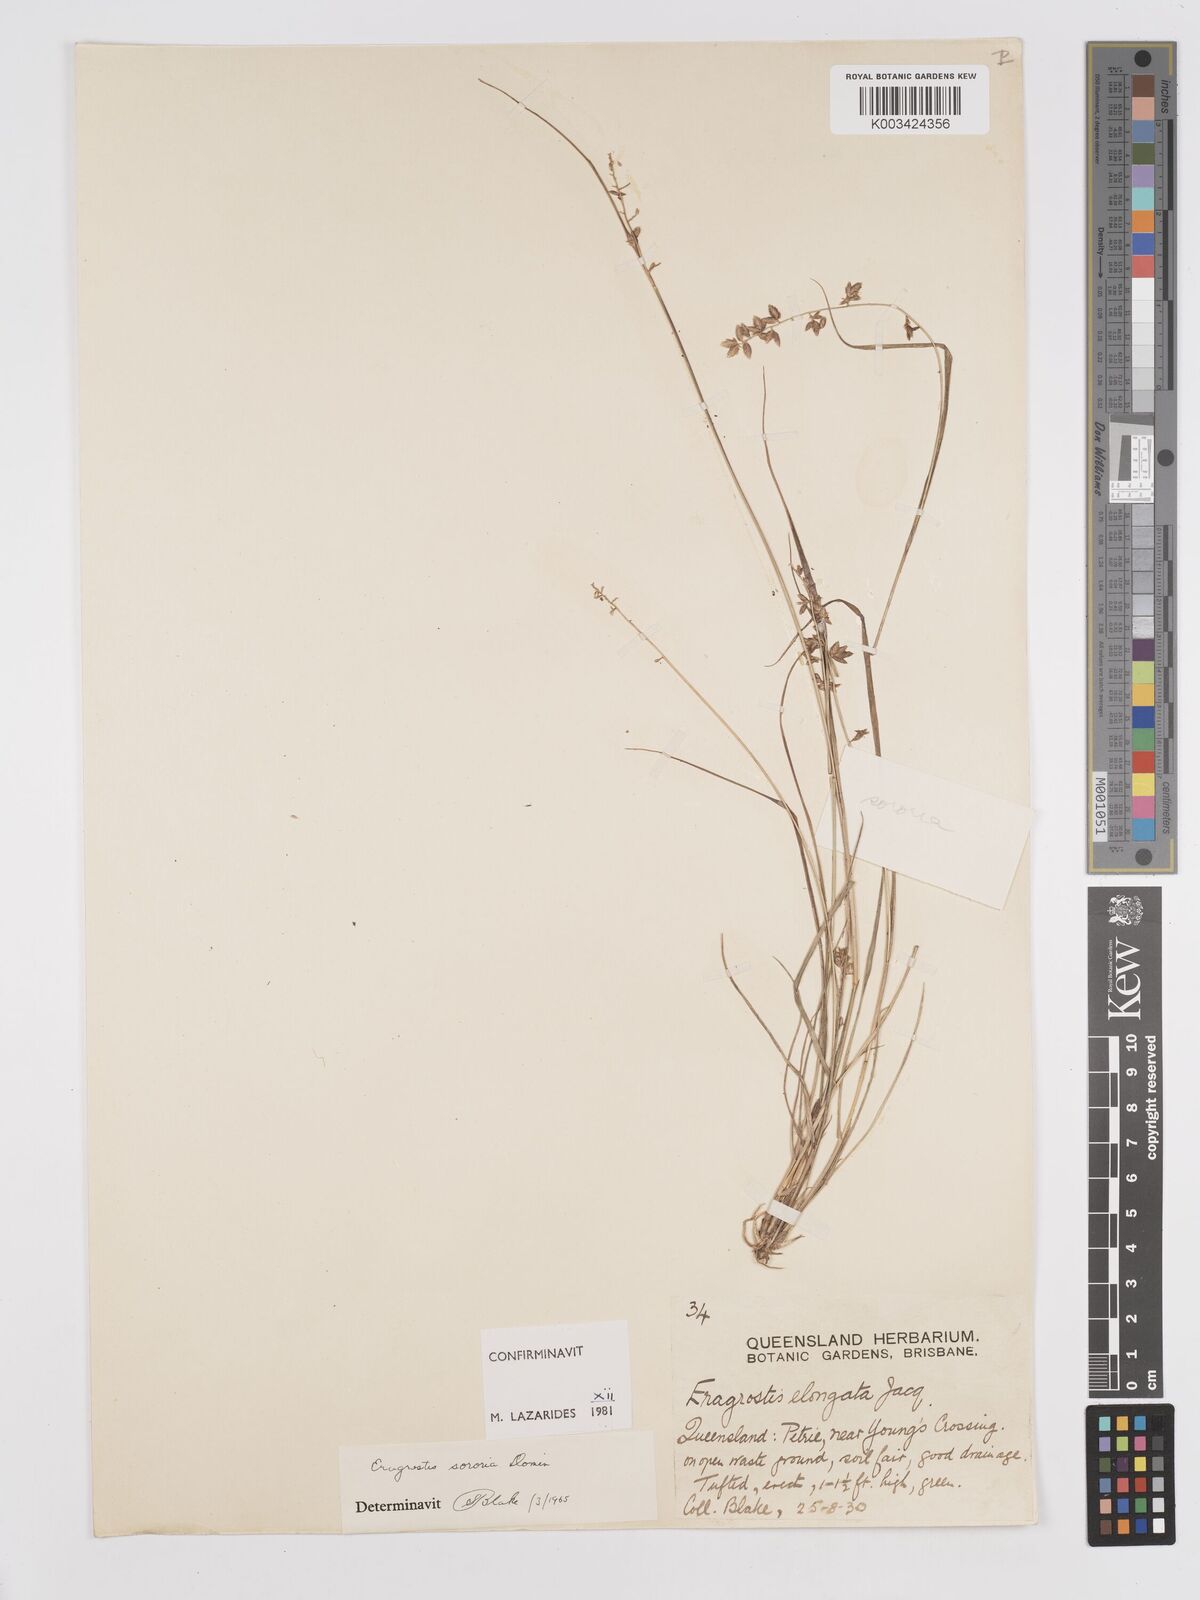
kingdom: Plantae
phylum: Tracheophyta
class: Liliopsida
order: Poales
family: Poaceae
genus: Eragrostis
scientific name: Eragrostis sororia
